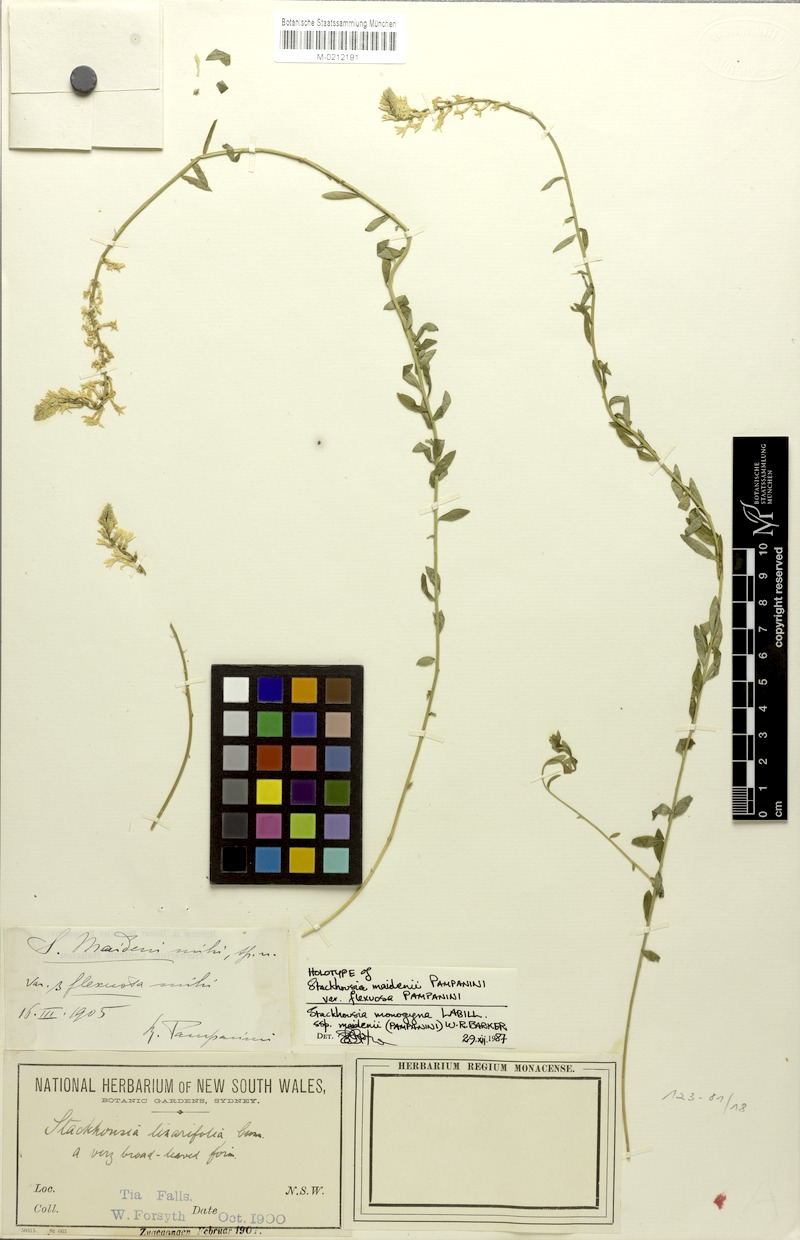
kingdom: Plantae
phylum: Tracheophyta
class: Magnoliopsida
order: Celastrales
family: Celastraceae
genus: Stackhousia
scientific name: Stackhousia monogyna
